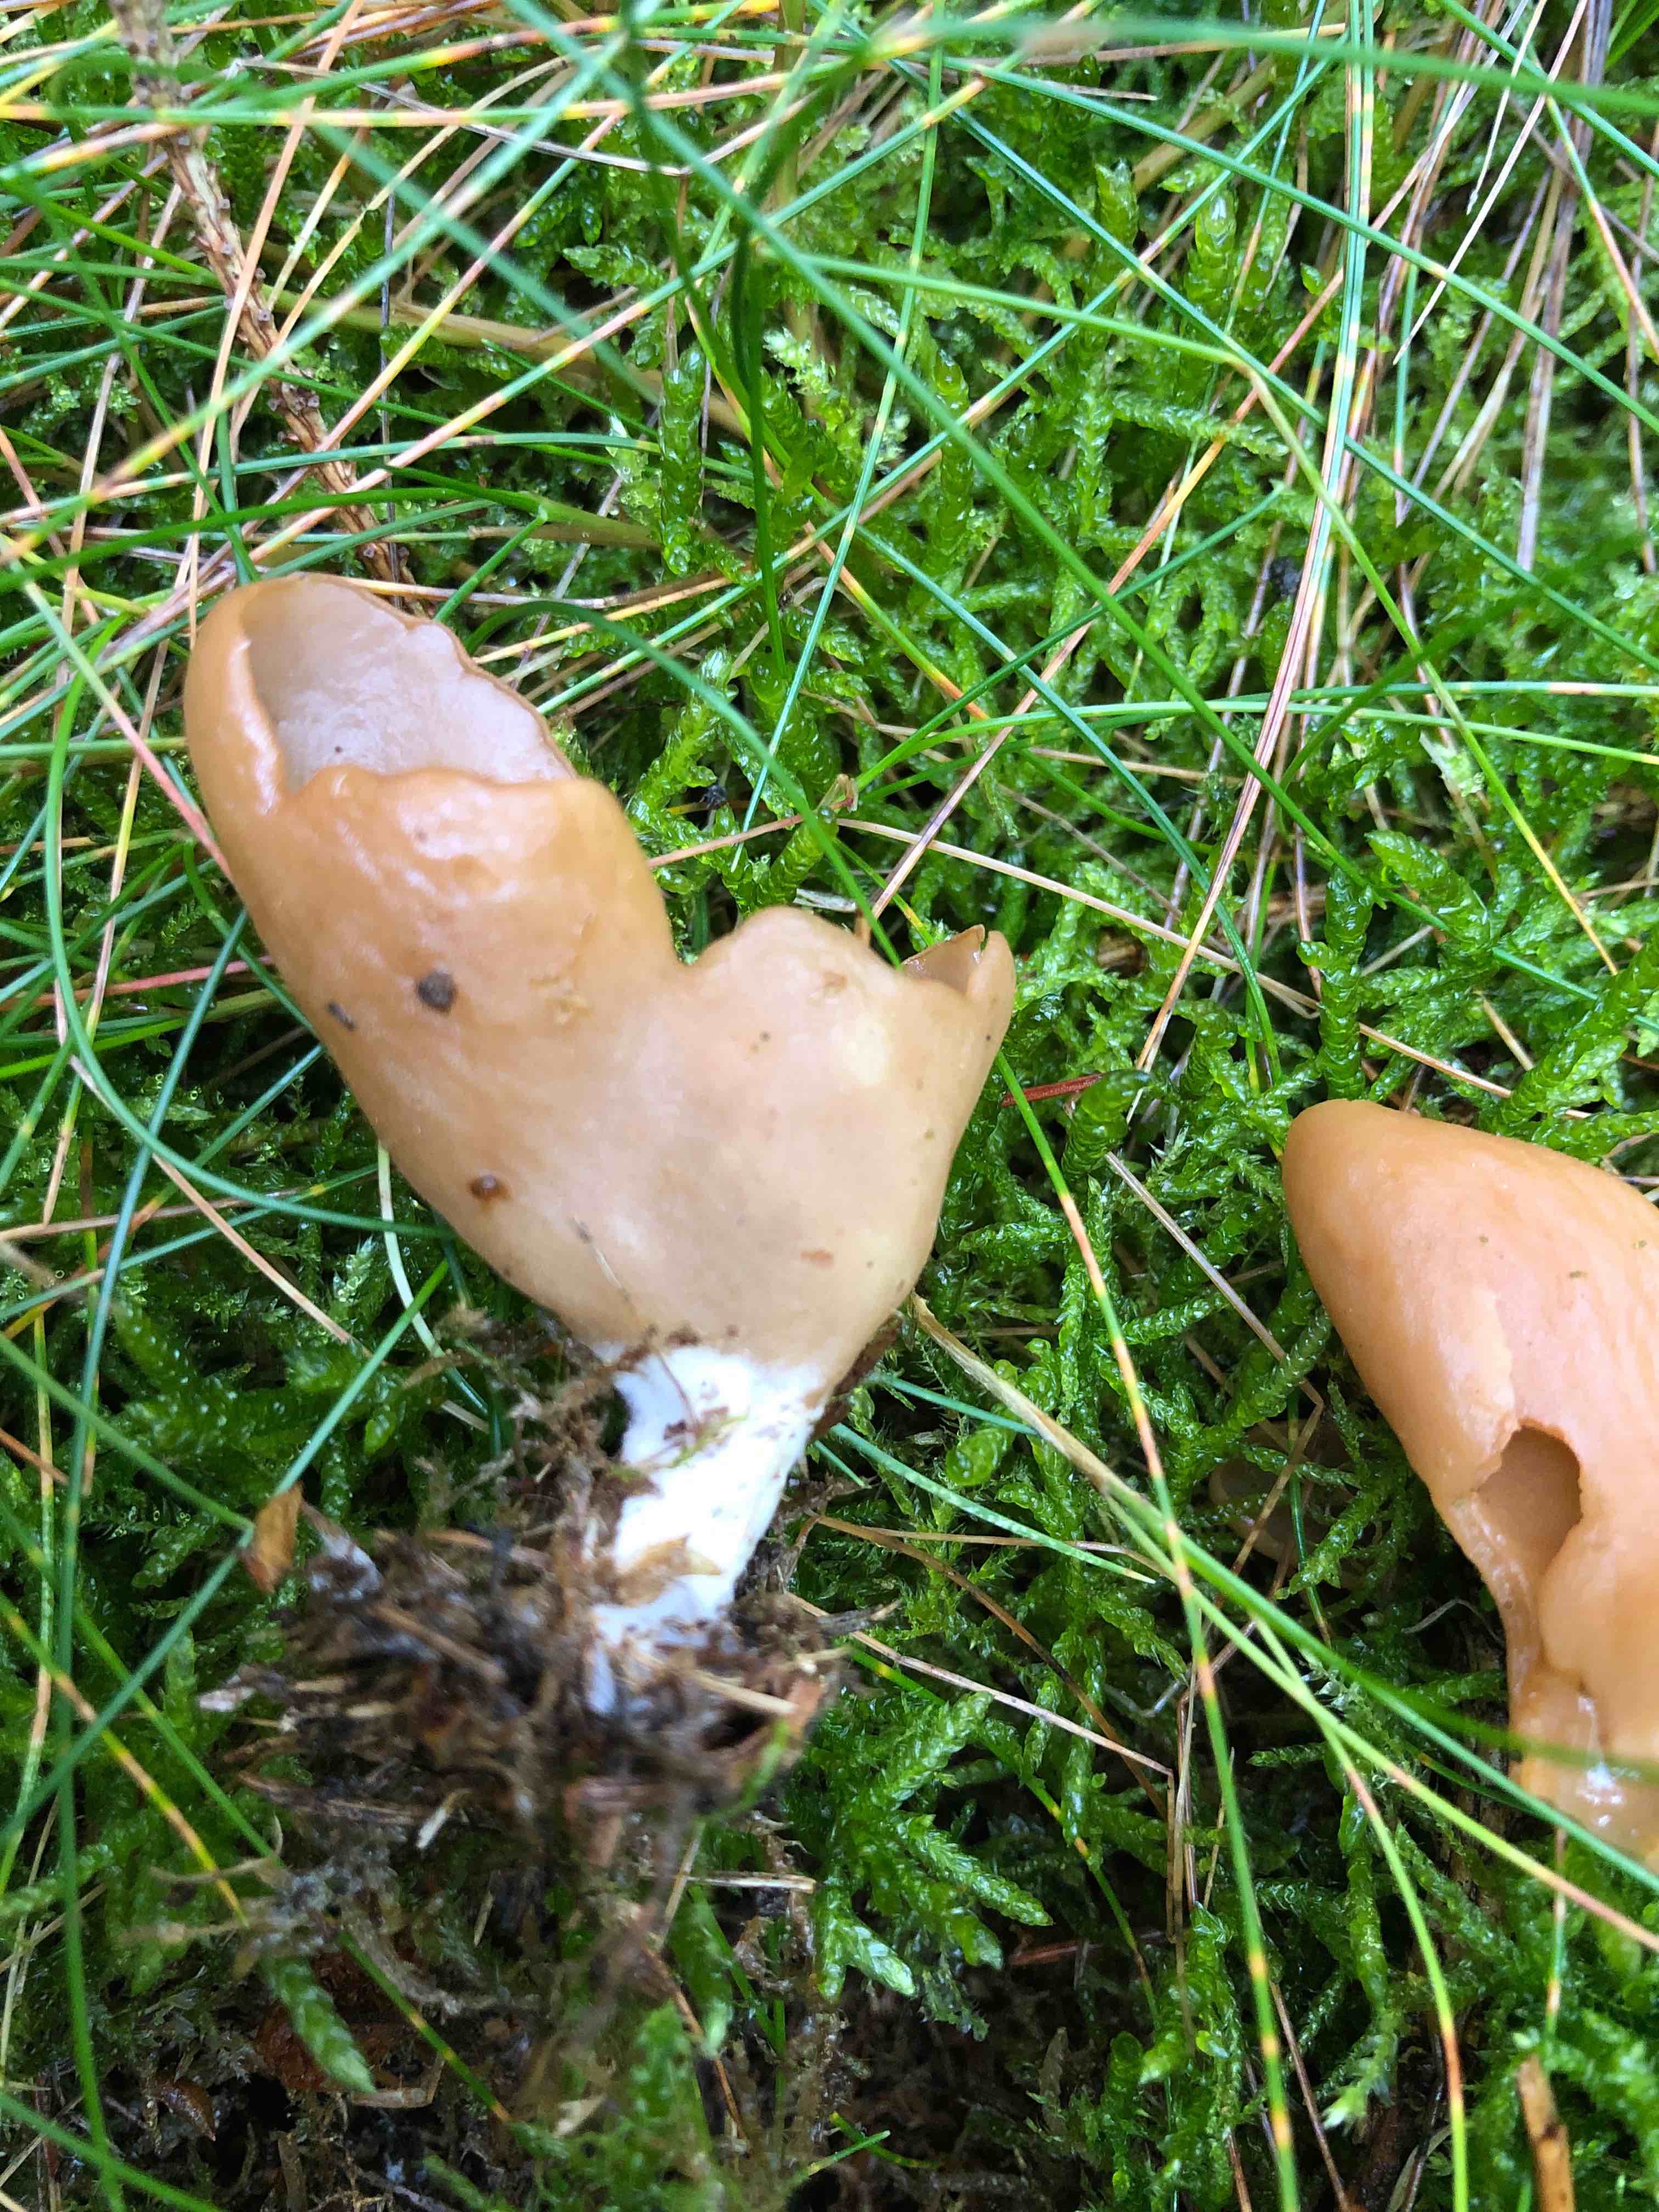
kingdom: Fungi
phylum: Ascomycota
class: Pezizomycetes
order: Pezizales
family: Otideaceae
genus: Otidea
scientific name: Otidea
